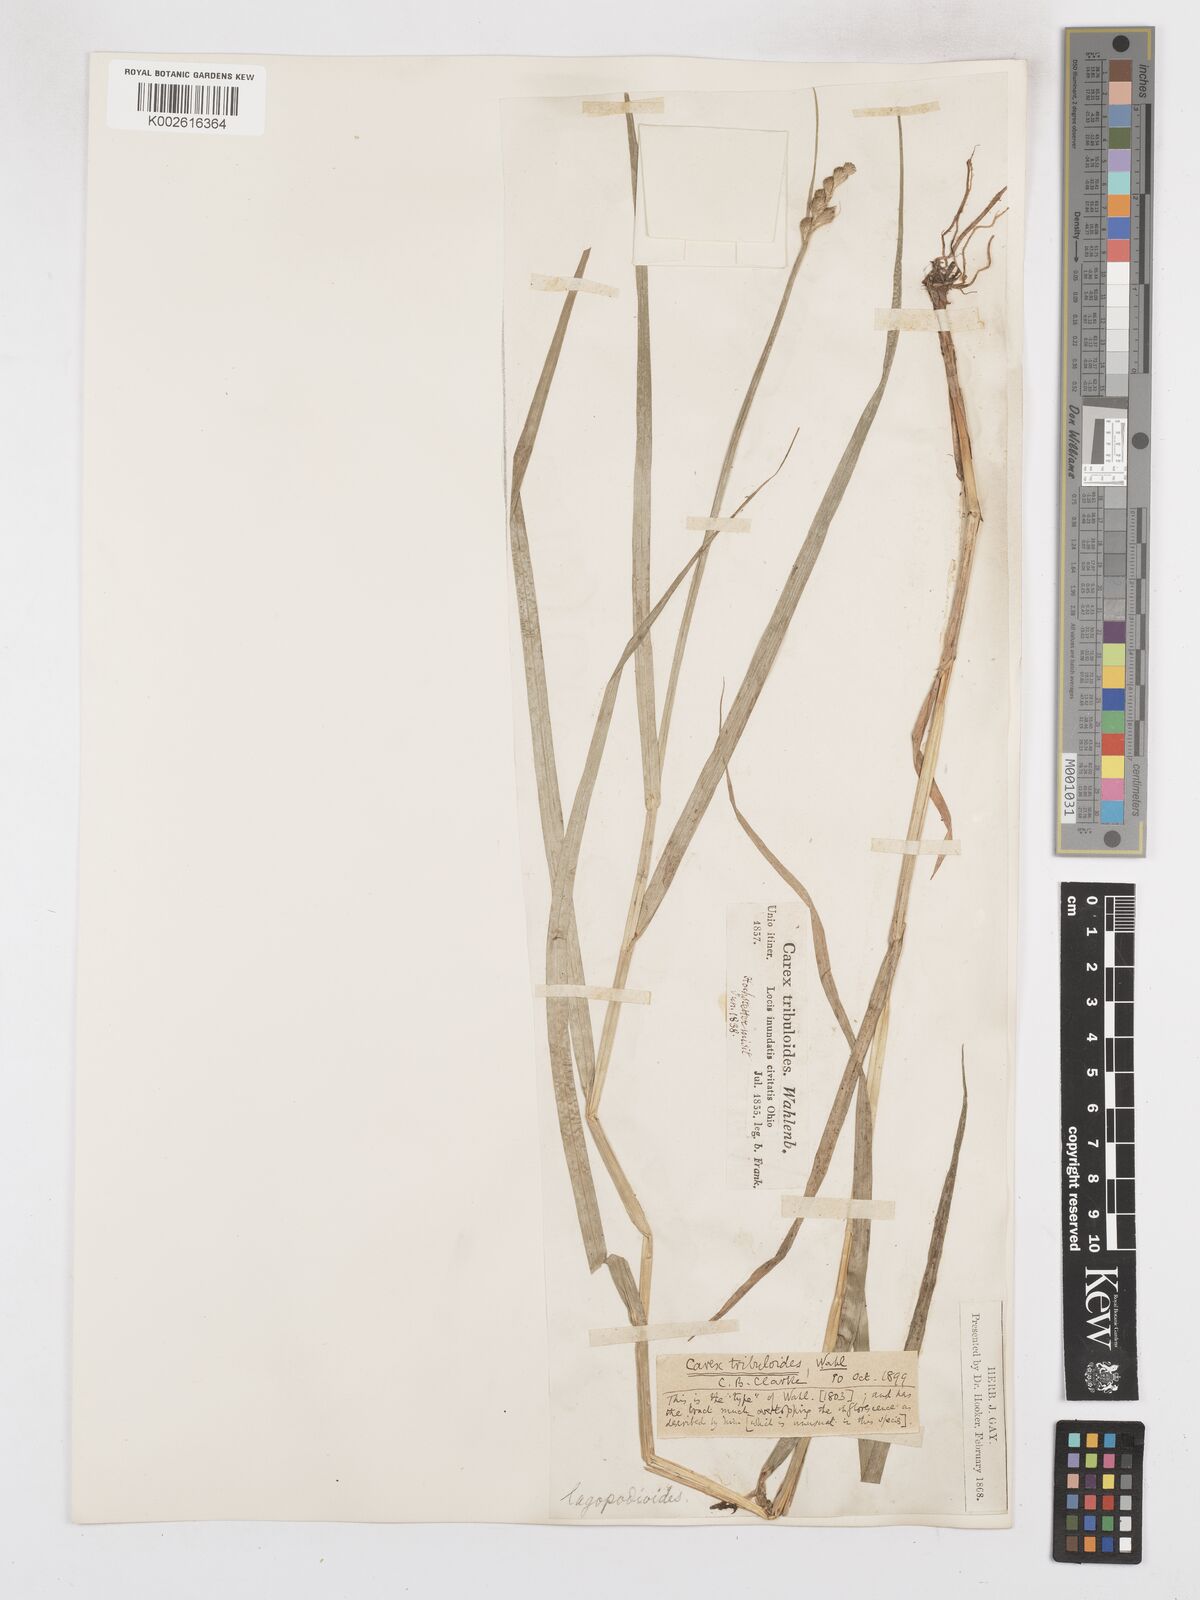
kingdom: Plantae
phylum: Tracheophyta
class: Liliopsida
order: Poales
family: Cyperaceae
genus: Carex
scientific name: Carex tribuloides
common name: Blunt broom sedge
